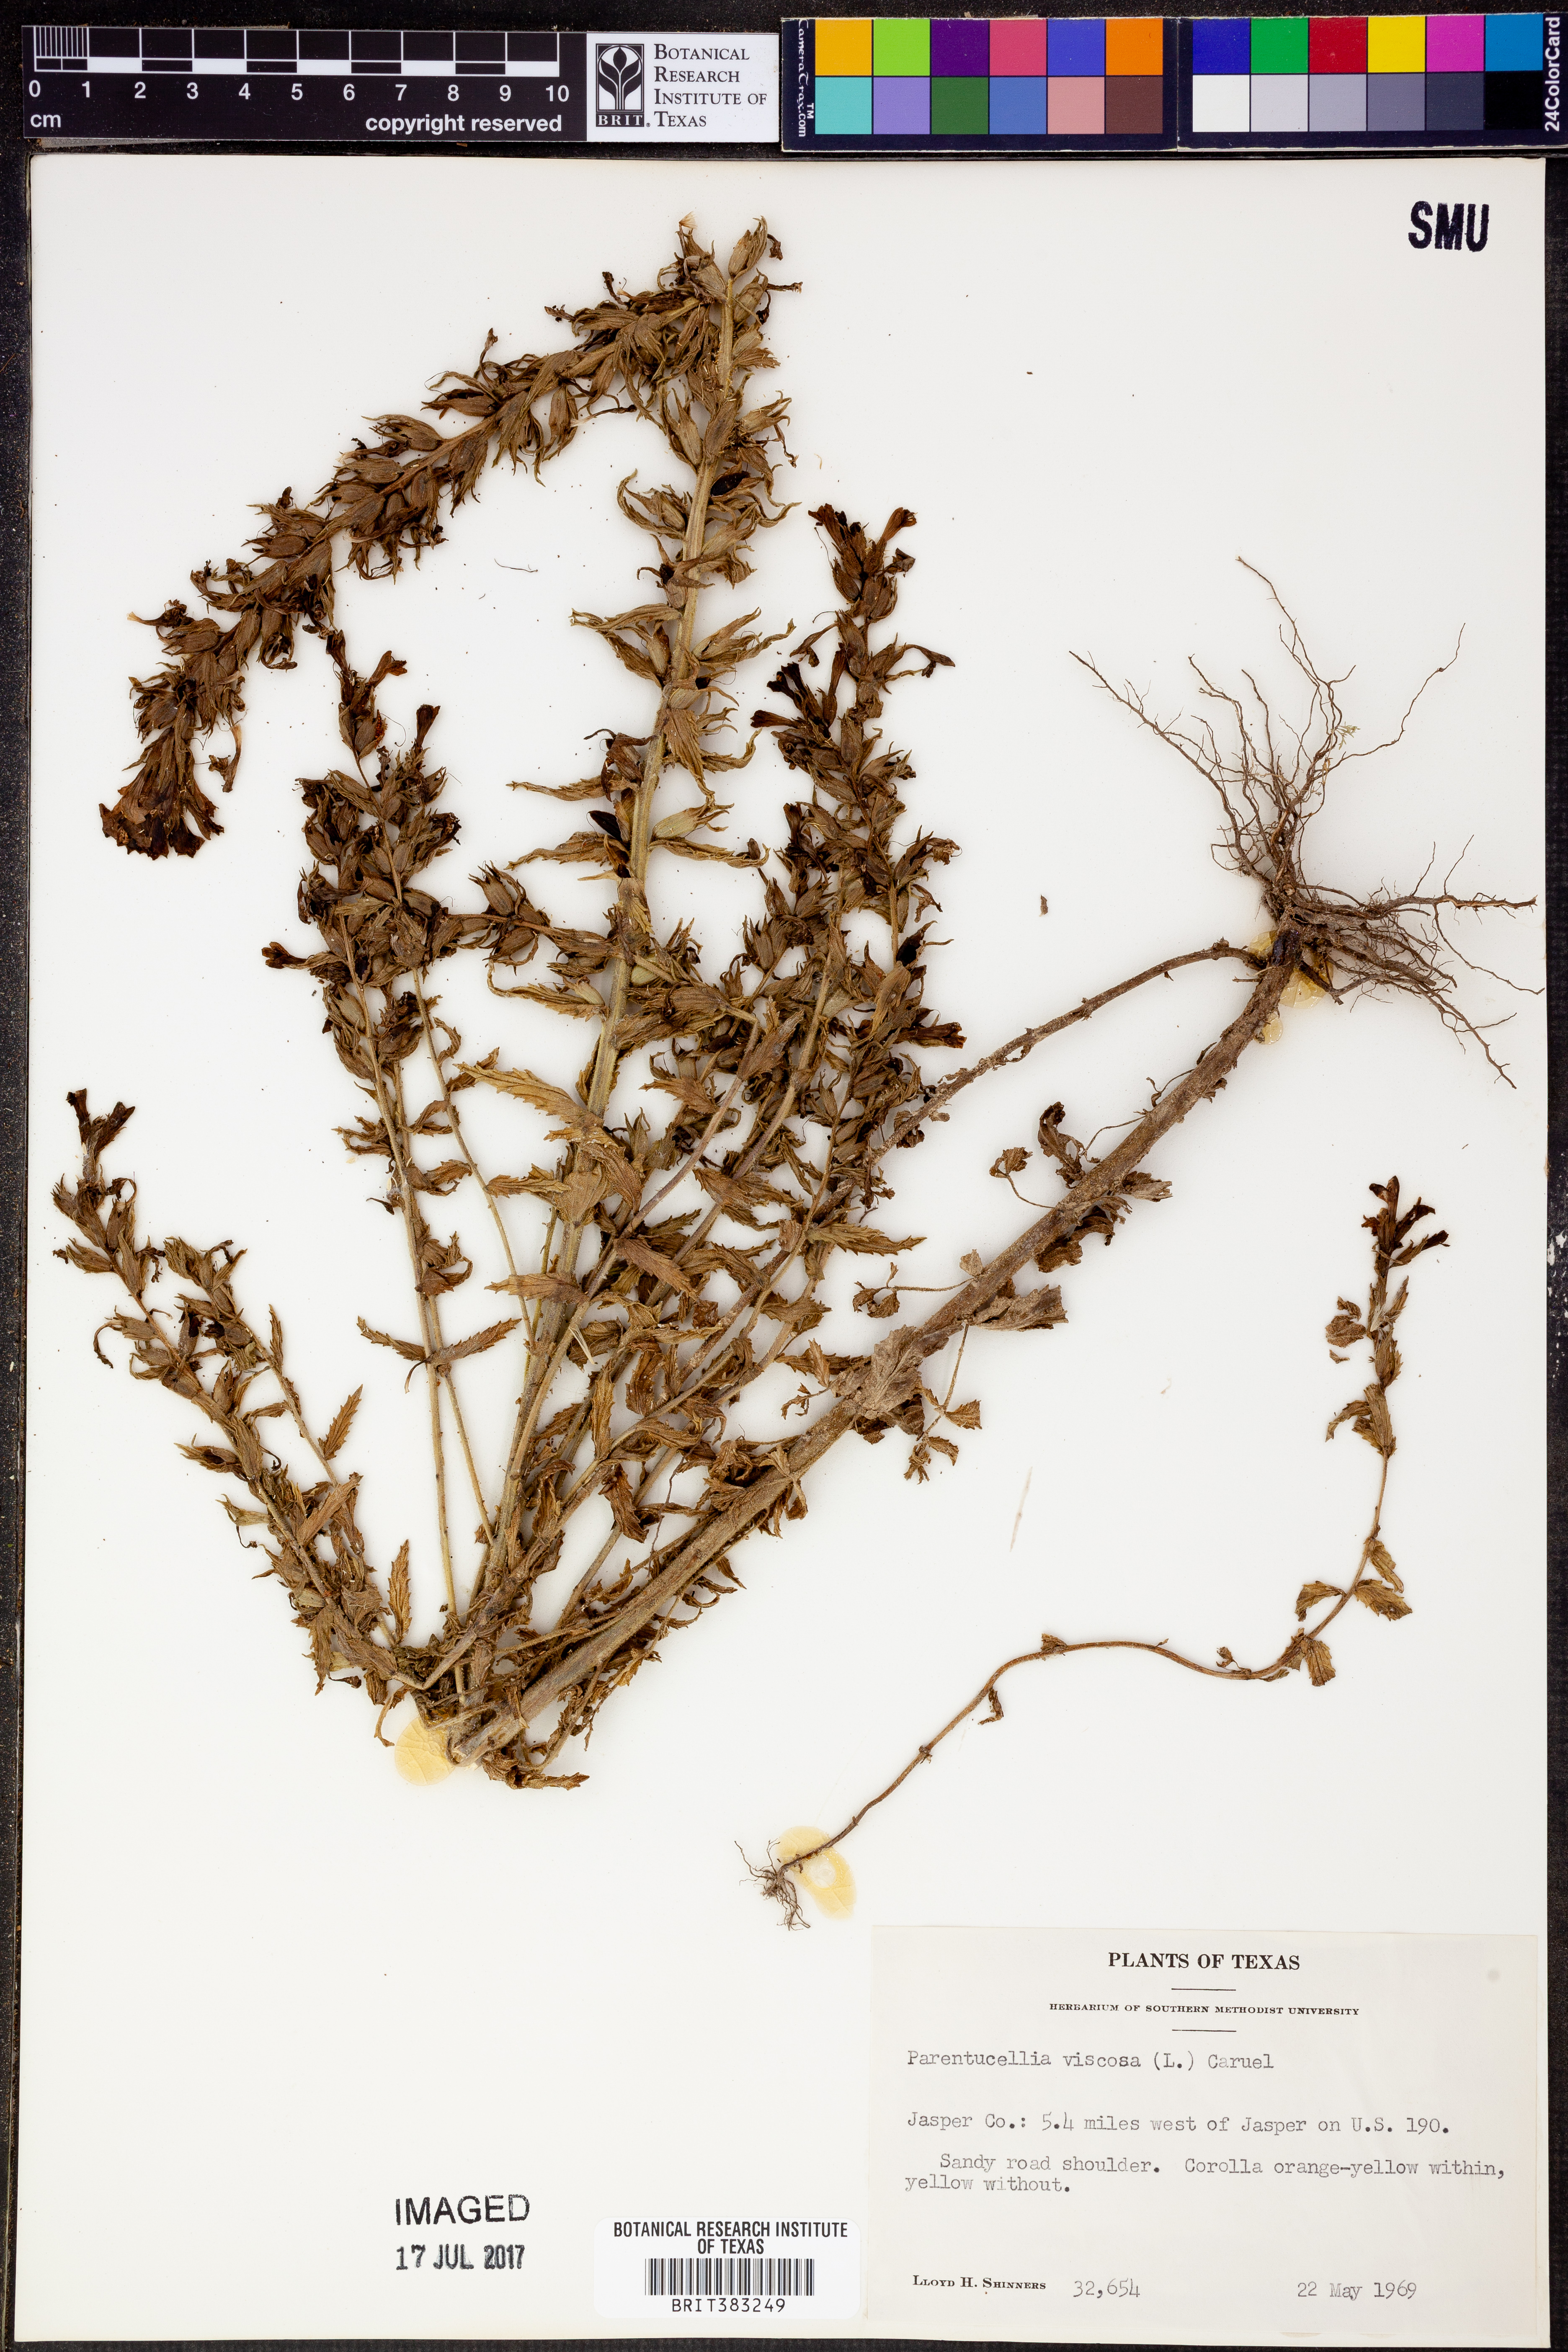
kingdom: Plantae
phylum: Tracheophyta
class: Magnoliopsida
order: Lamiales
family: Orobanchaceae
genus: Bellardia
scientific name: Bellardia viscosa
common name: Sticky parentucellia
